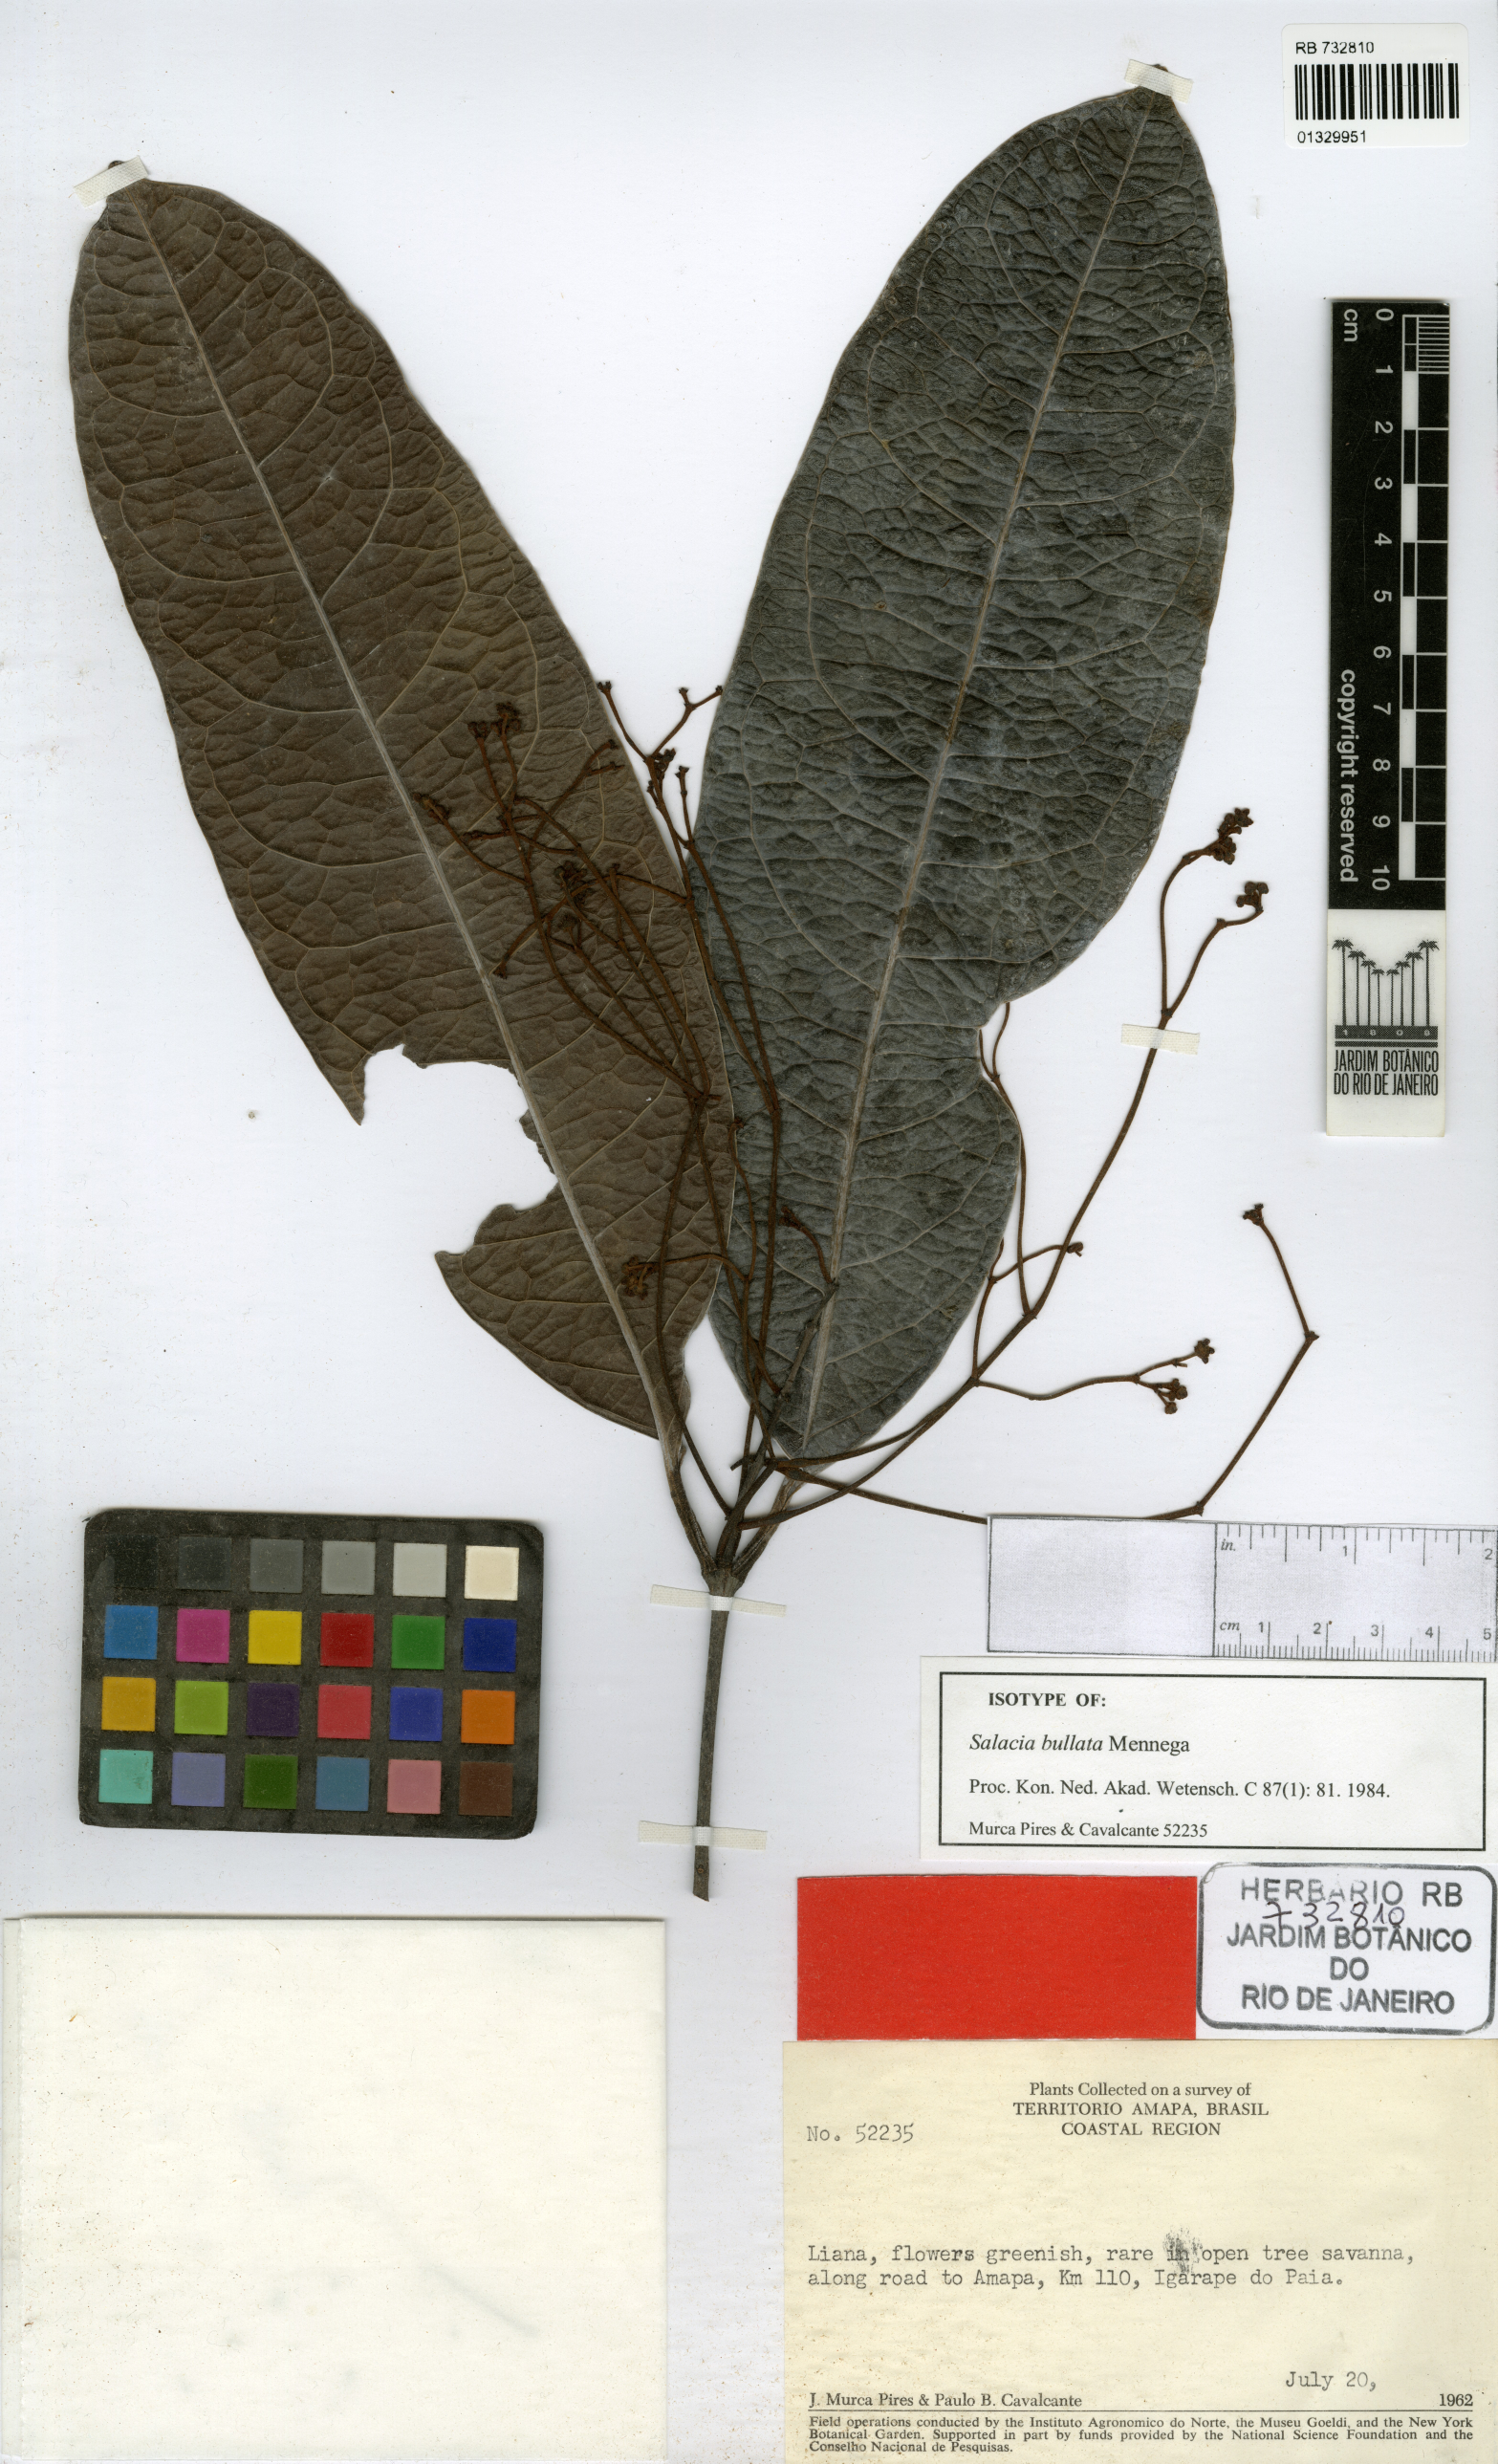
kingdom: Plantae
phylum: Tracheophyta
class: Magnoliopsida
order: Celastrales
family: Celastraceae
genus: Salacia
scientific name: Salacia amplectens
